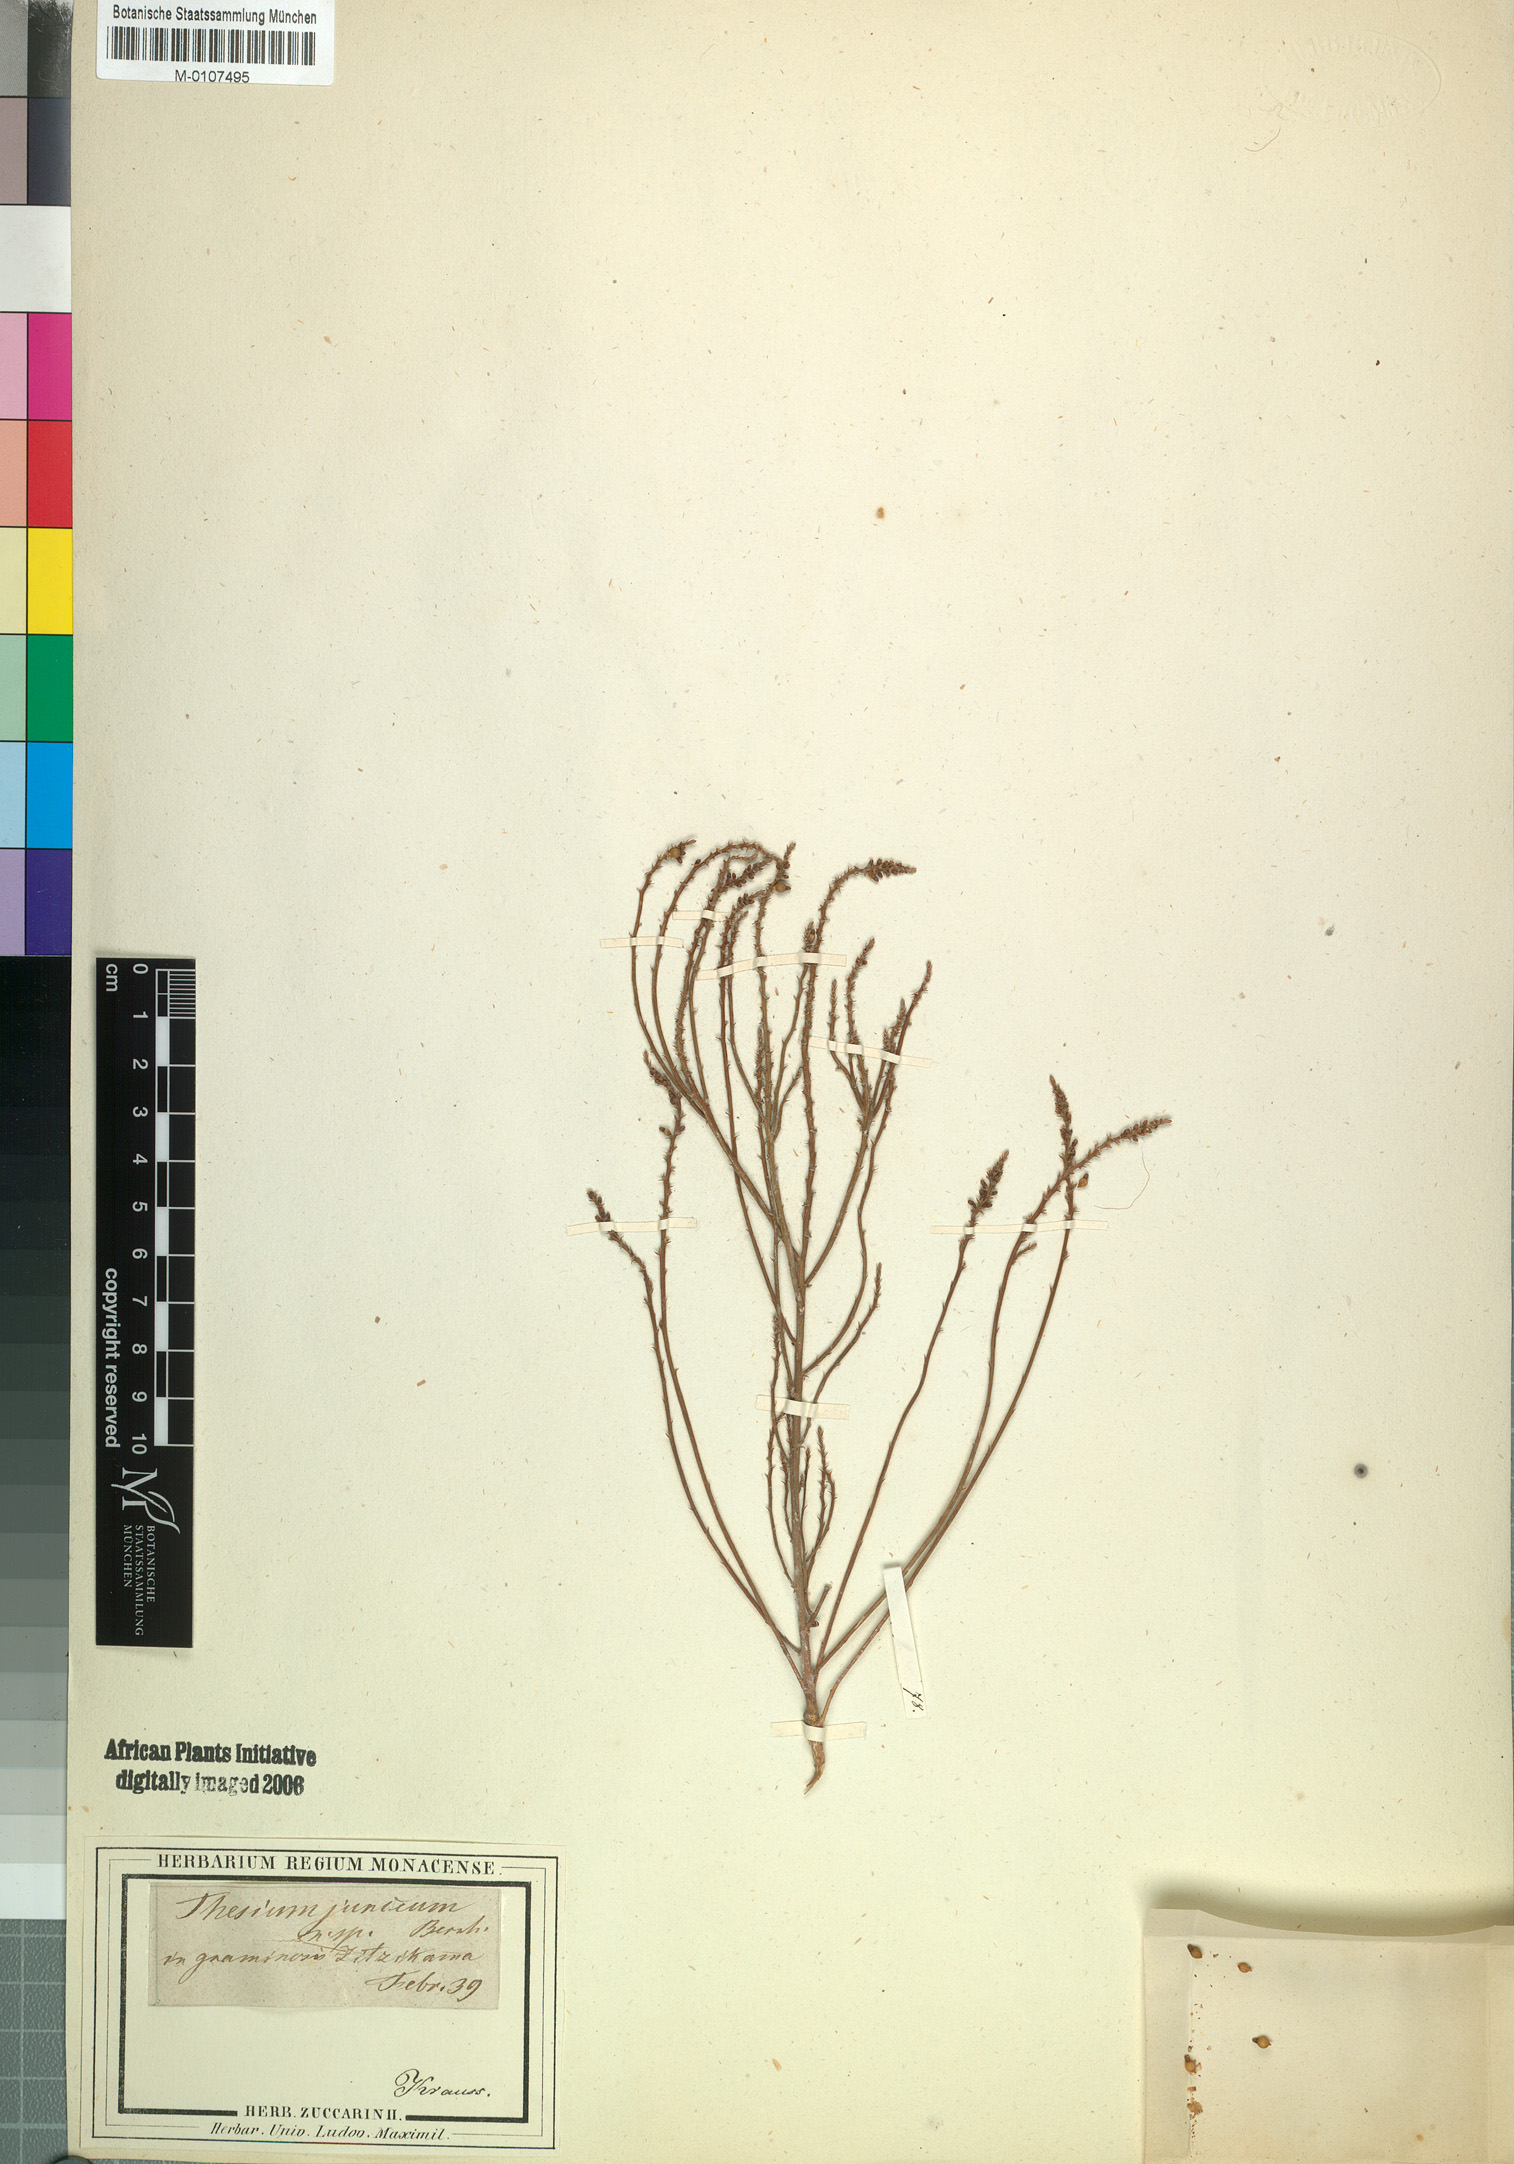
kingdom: Plantae
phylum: Tracheophyta
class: Magnoliopsida
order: Santalales
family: Thesiaceae
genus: Thesium
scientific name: Thesium junceum
